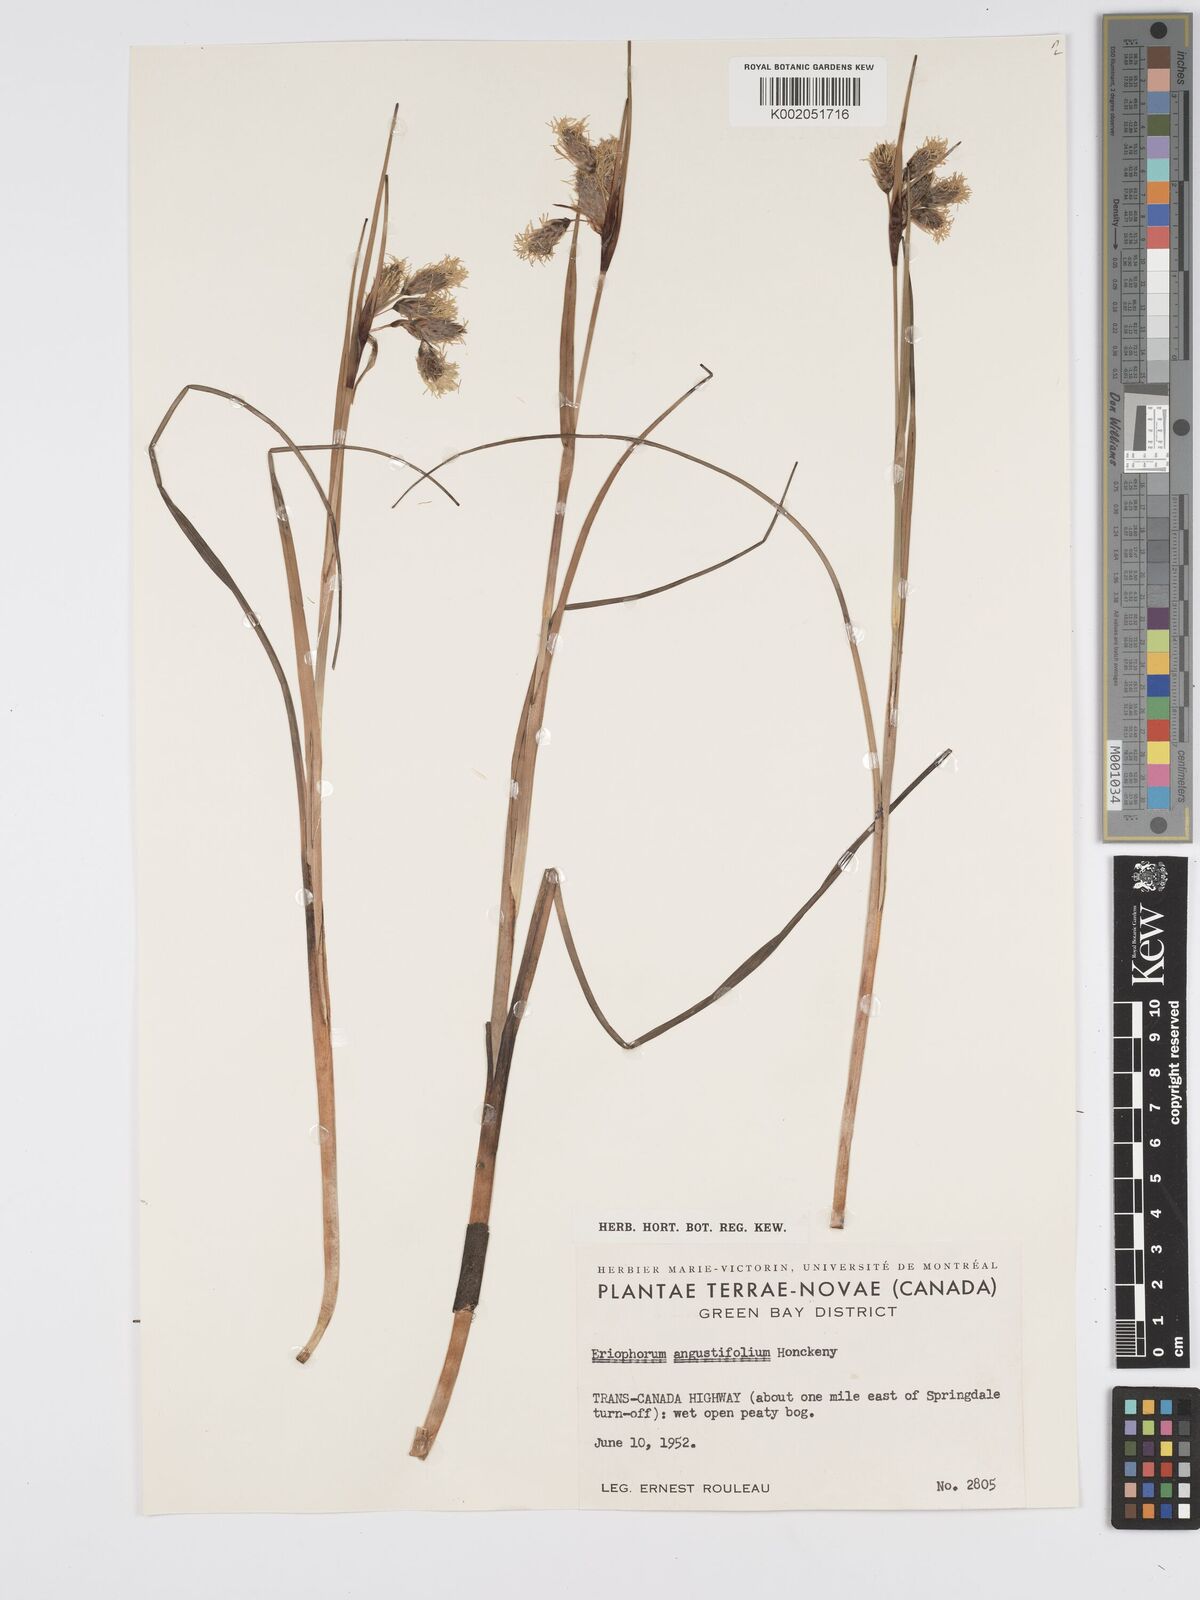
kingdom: Plantae
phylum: Tracheophyta
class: Liliopsida
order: Poales
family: Cyperaceae
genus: Eriophorum
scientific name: Eriophorum angustifolium
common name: Common cottongrass
